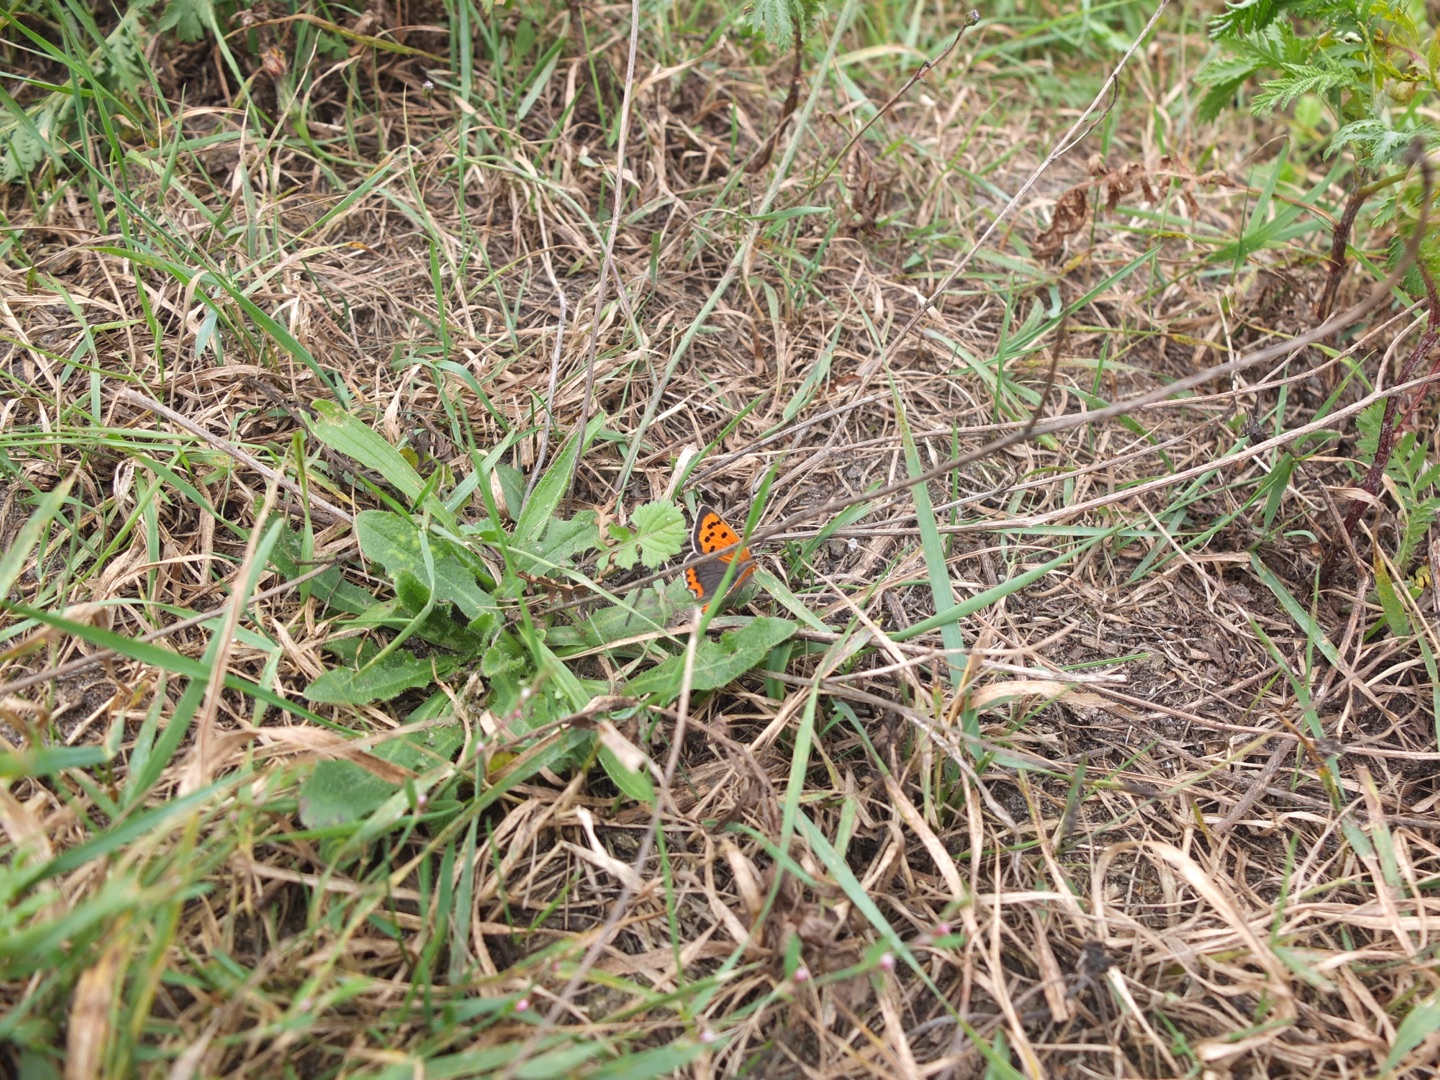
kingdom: Animalia
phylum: Arthropoda
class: Insecta
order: Lepidoptera
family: Lycaenidae
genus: Lycaena
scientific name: Lycaena phlaeas
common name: Lille ildfugl
